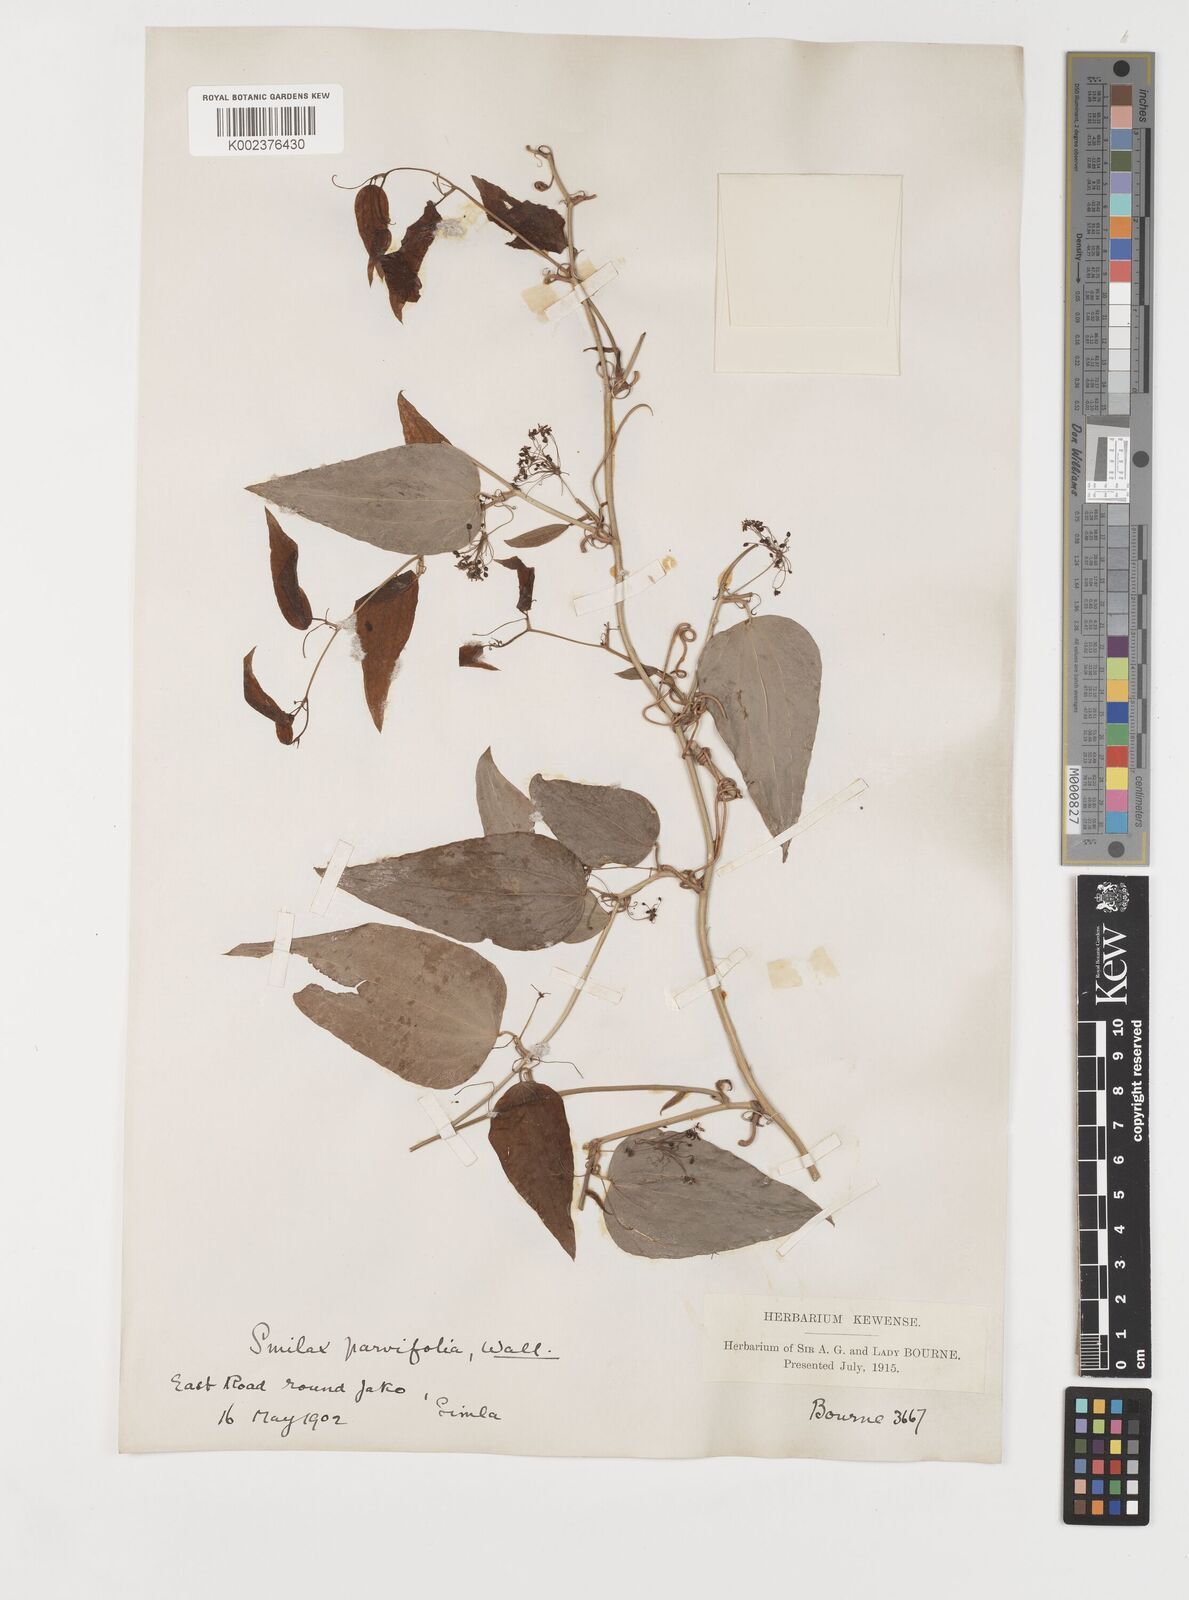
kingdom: Plantae
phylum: Tracheophyta
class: Liliopsida
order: Liliales
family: Smilacaceae
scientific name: Smilacaceae
